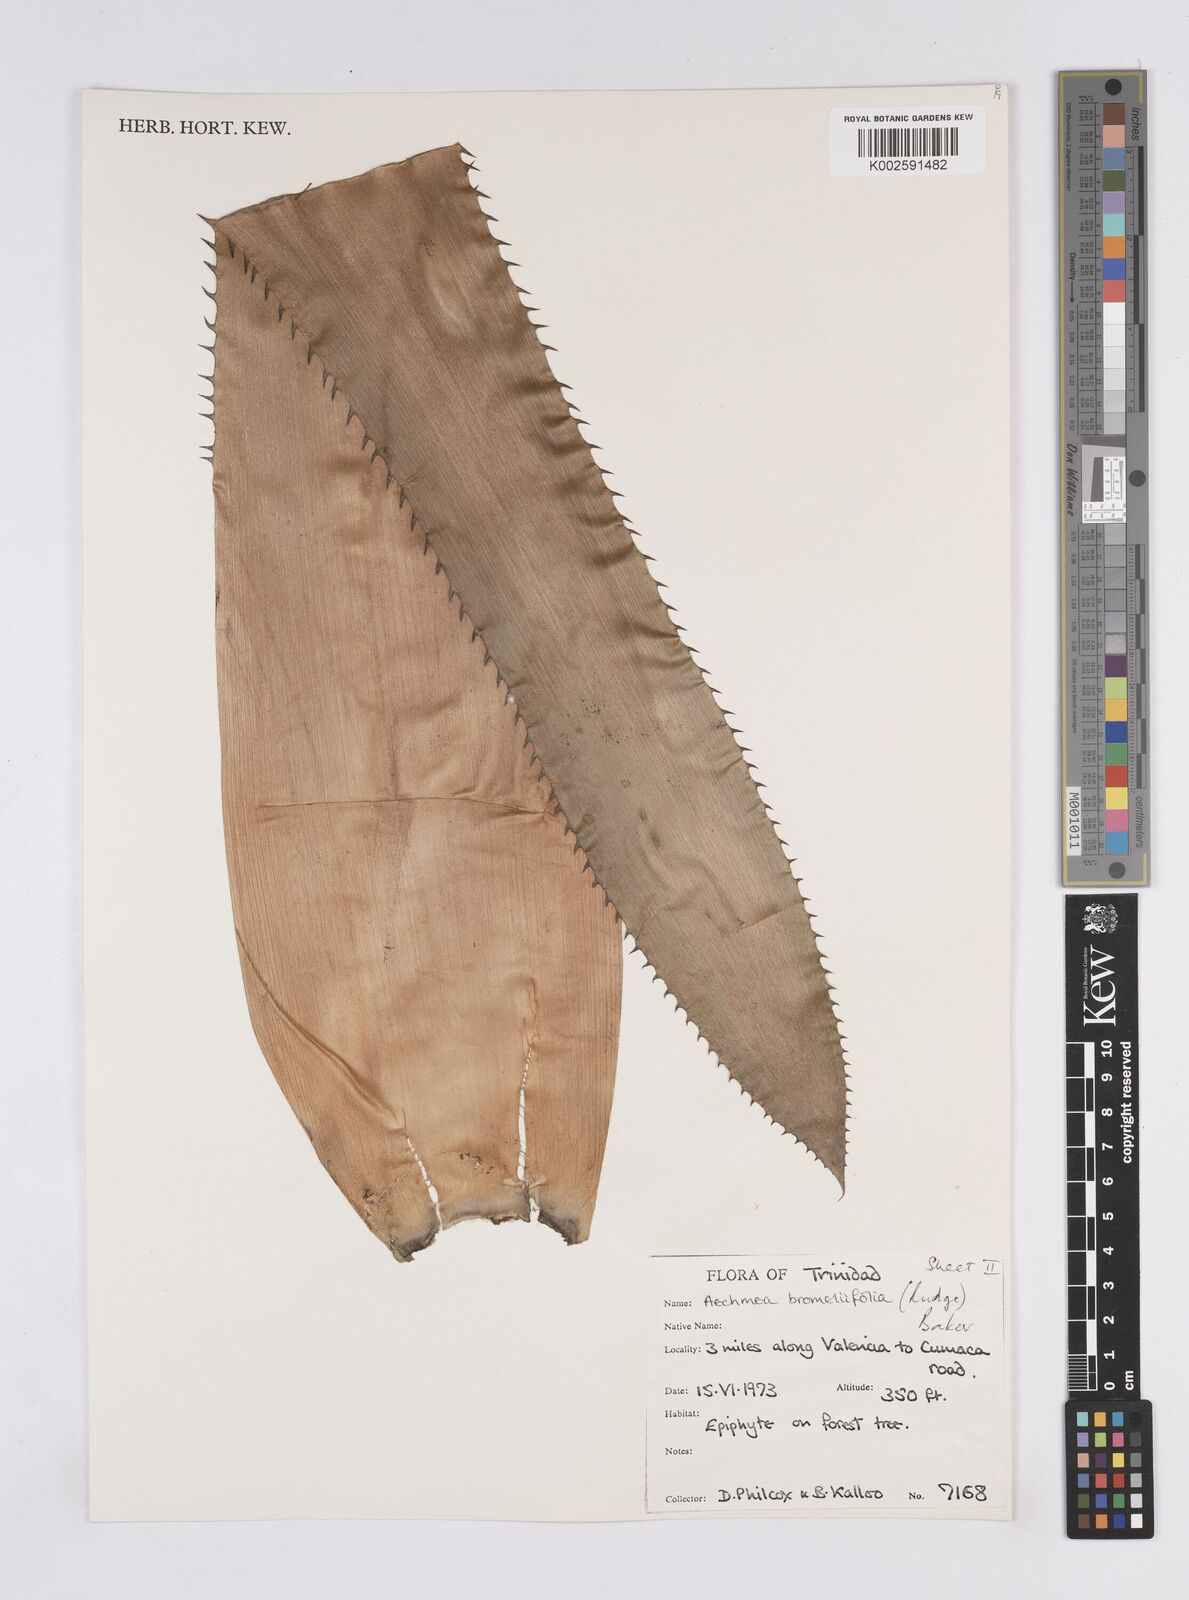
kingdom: Plantae
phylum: Tracheophyta
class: Liliopsida
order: Poales
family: Bromeliaceae
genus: Aechmea
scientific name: Aechmea bromeliifolia
